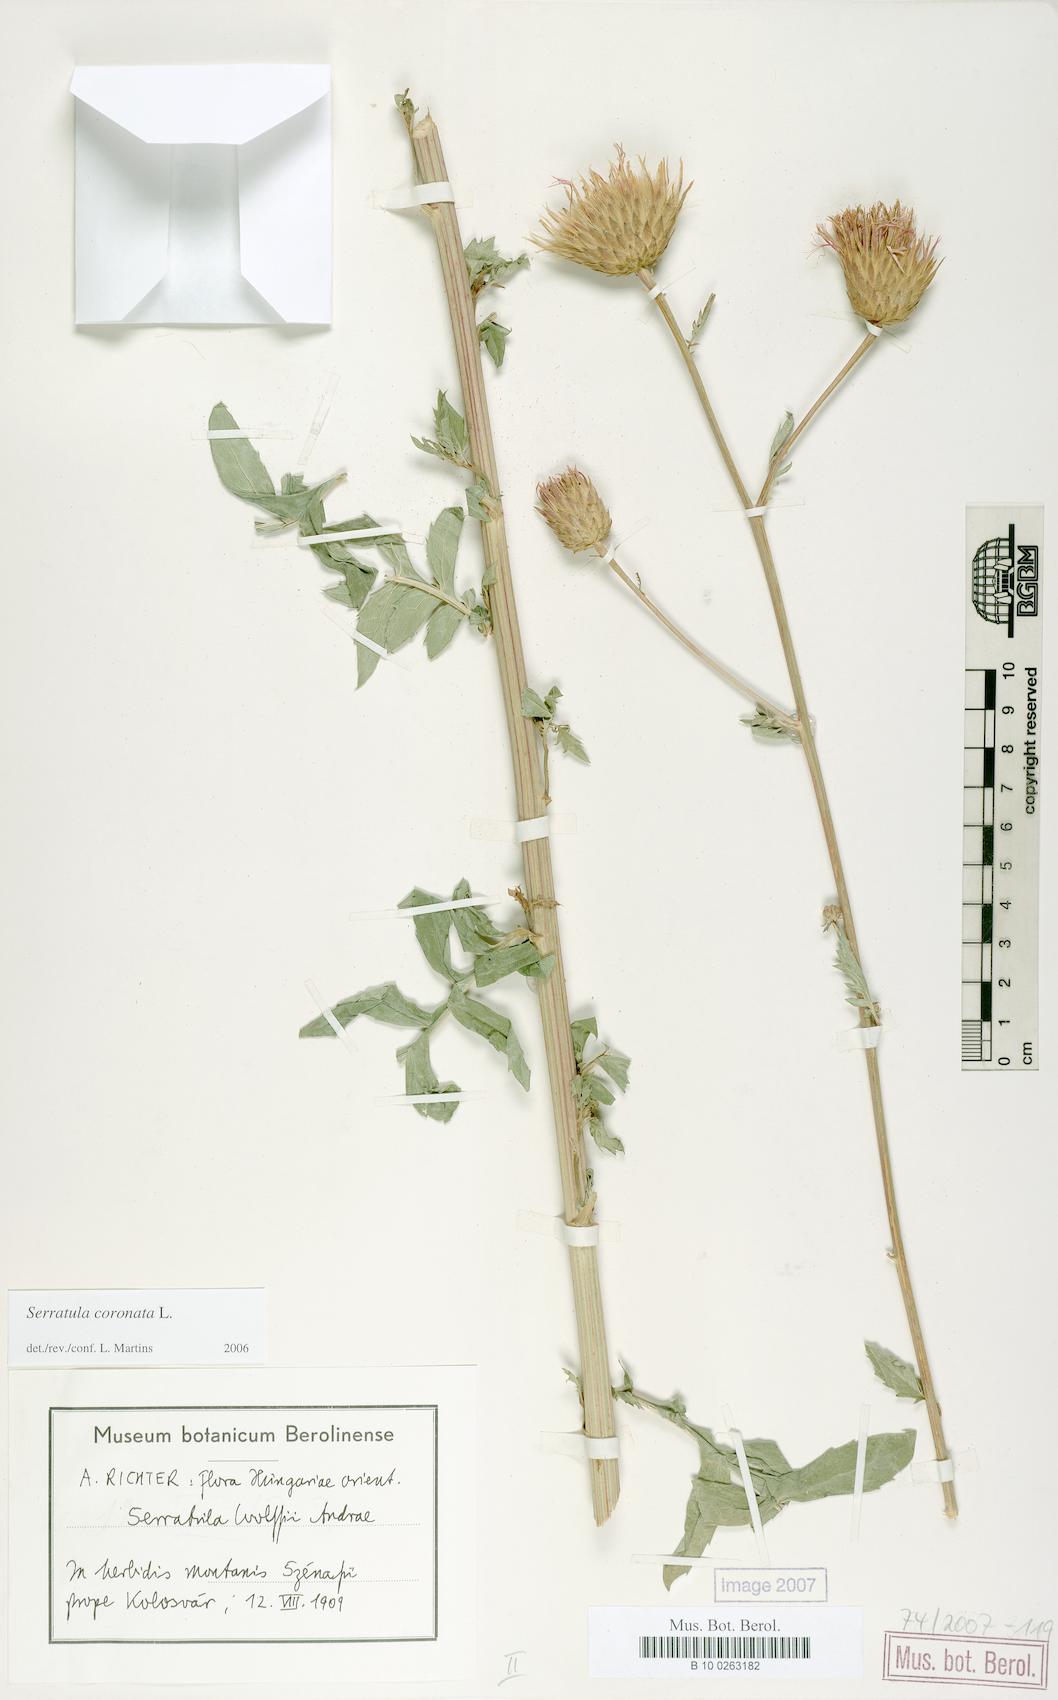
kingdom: Plantae
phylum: Tracheophyta
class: Magnoliopsida
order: Asterales
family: Asteraceae
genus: Serratula
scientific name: Serratula coronata
